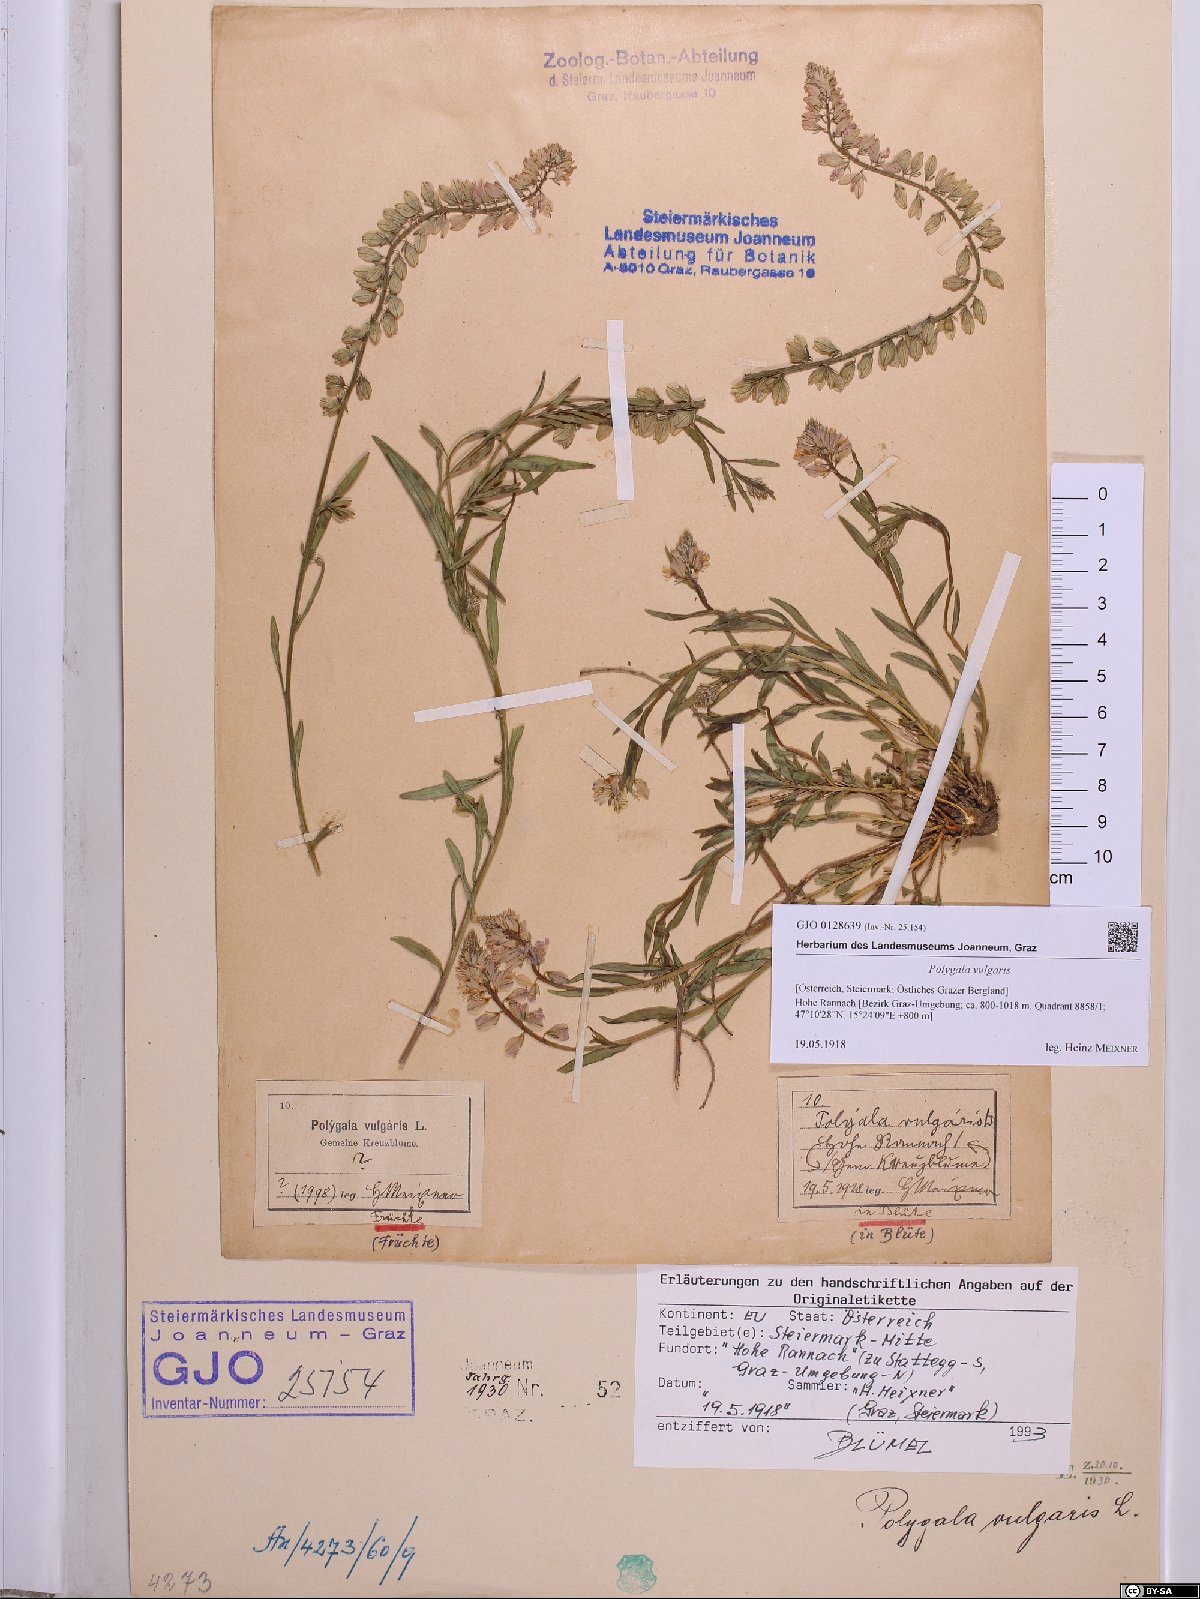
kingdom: Plantae
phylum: Tracheophyta
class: Magnoliopsida
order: Fabales
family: Polygalaceae
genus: Polygala
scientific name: Polygala vulgaris
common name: Common milkwort
